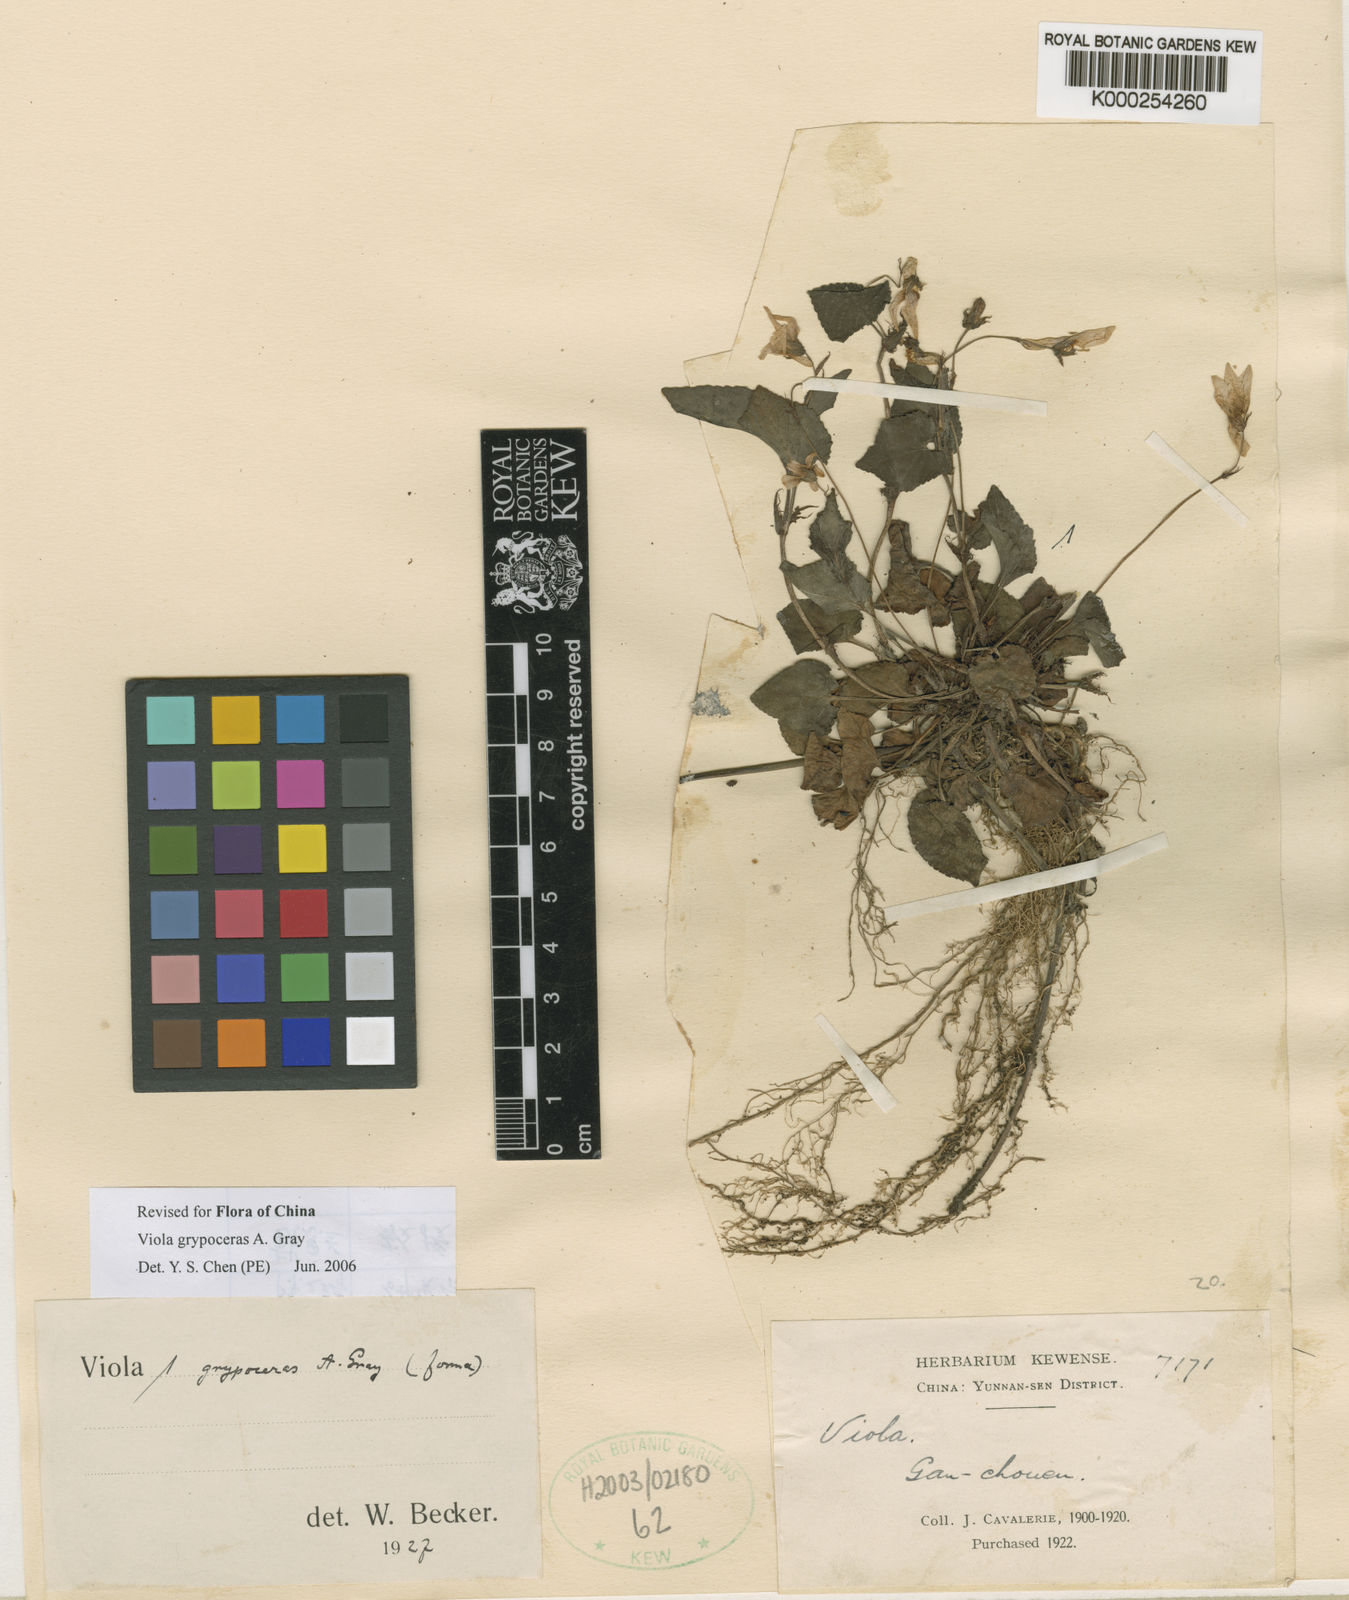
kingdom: Plantae
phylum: Tracheophyta
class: Magnoliopsida
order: Malpighiales
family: Violaceae
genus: Viola
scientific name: Viola fargesii
